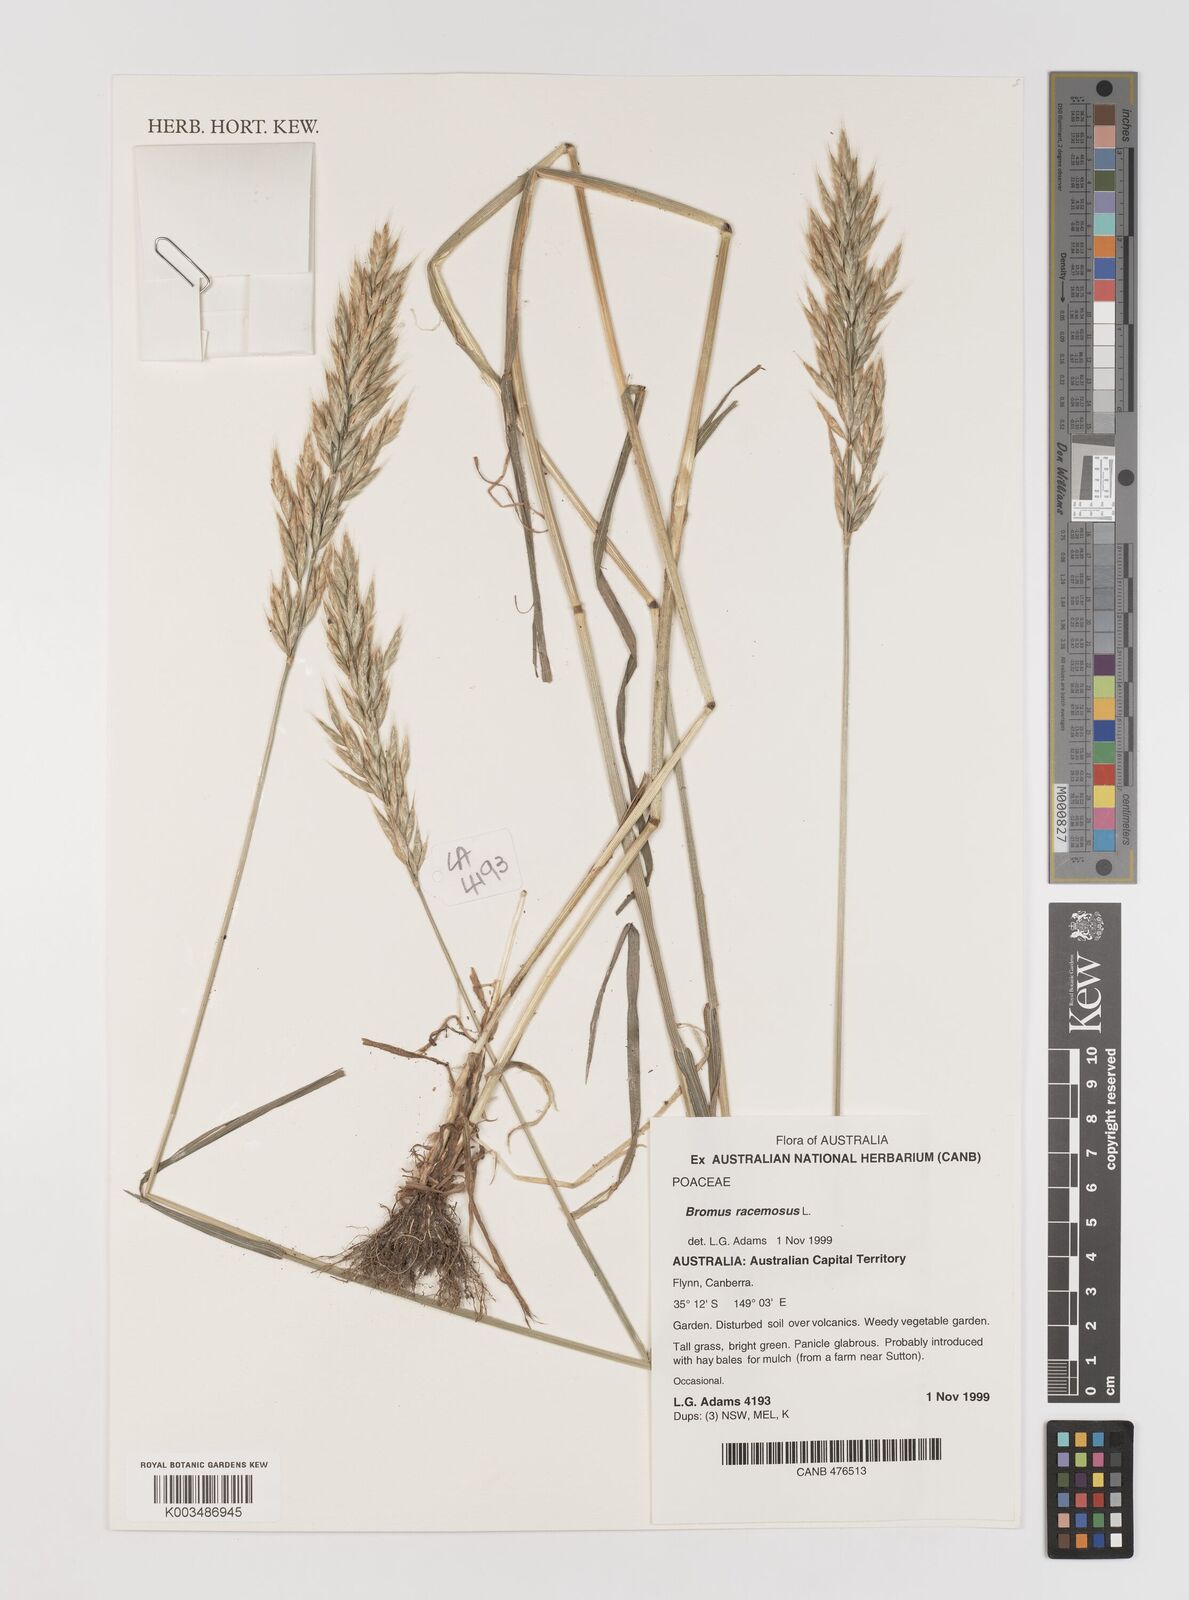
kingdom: Plantae
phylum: Tracheophyta
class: Liliopsida
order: Poales
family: Poaceae
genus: Bromus
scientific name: Bromus racemosus
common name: Bald brome
